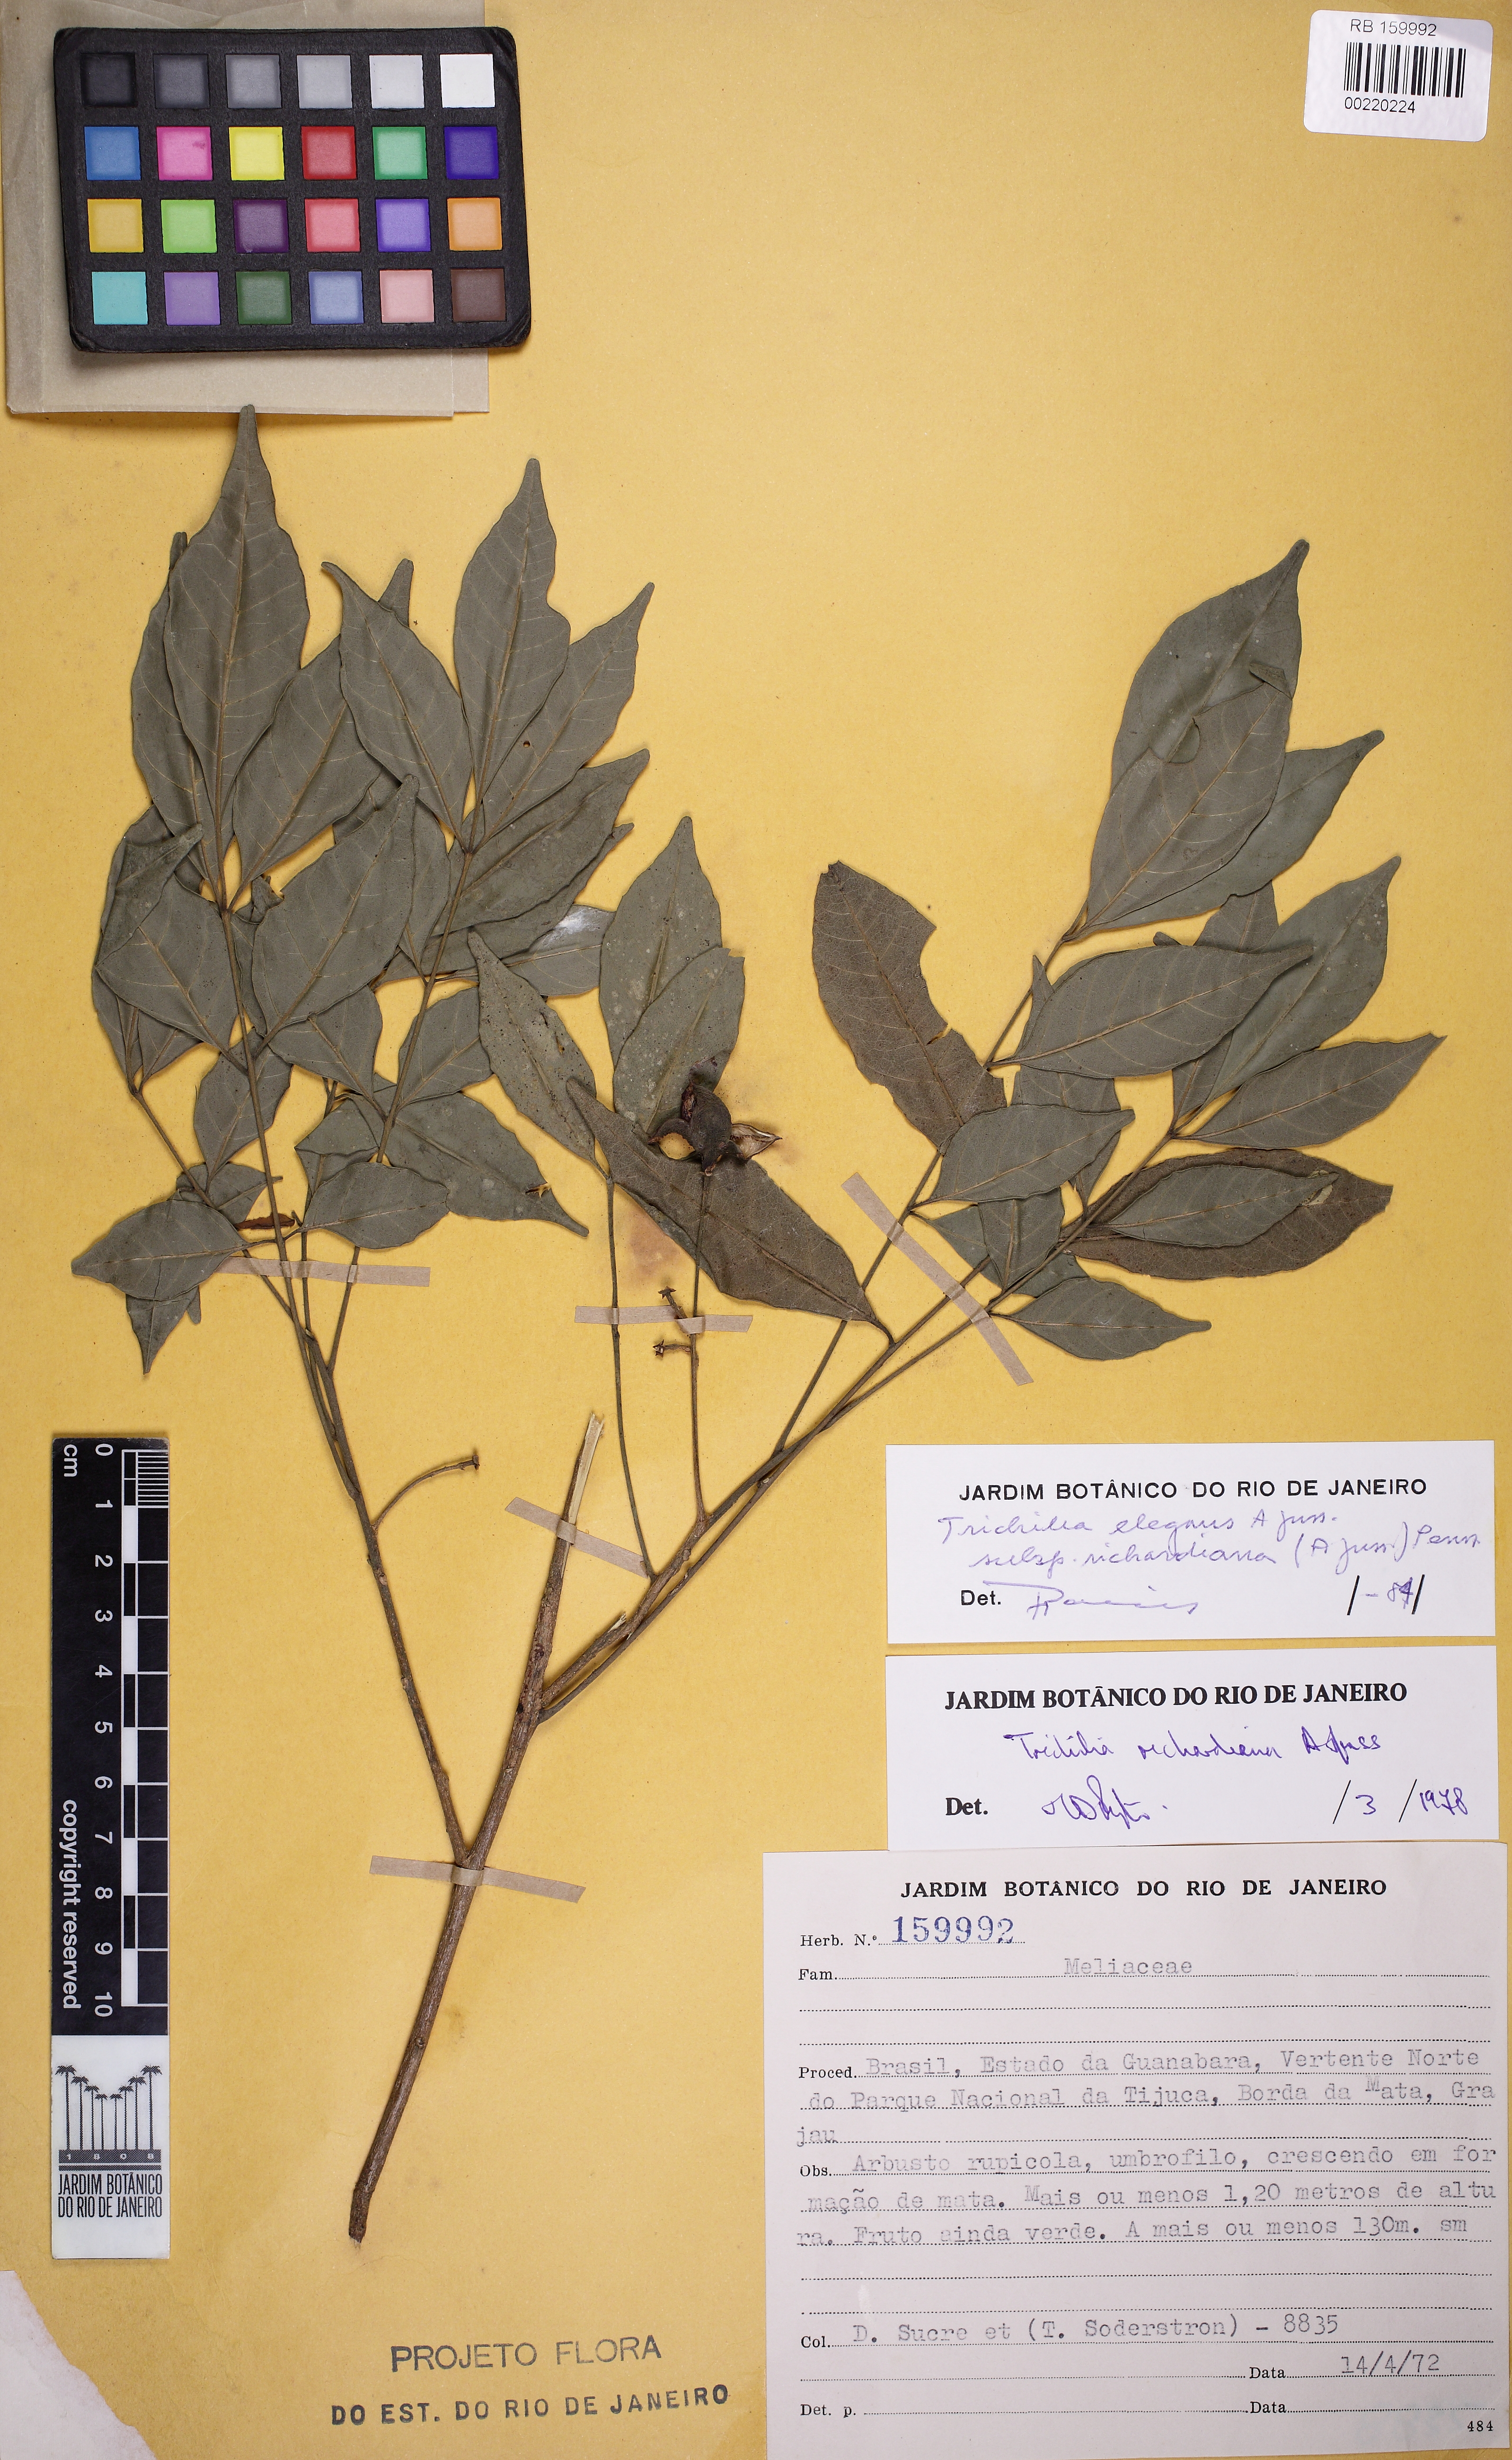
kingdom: Plantae
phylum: Tracheophyta
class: Magnoliopsida
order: Sapindales
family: Meliaceae
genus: Trichilia
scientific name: Trichilia elegans
